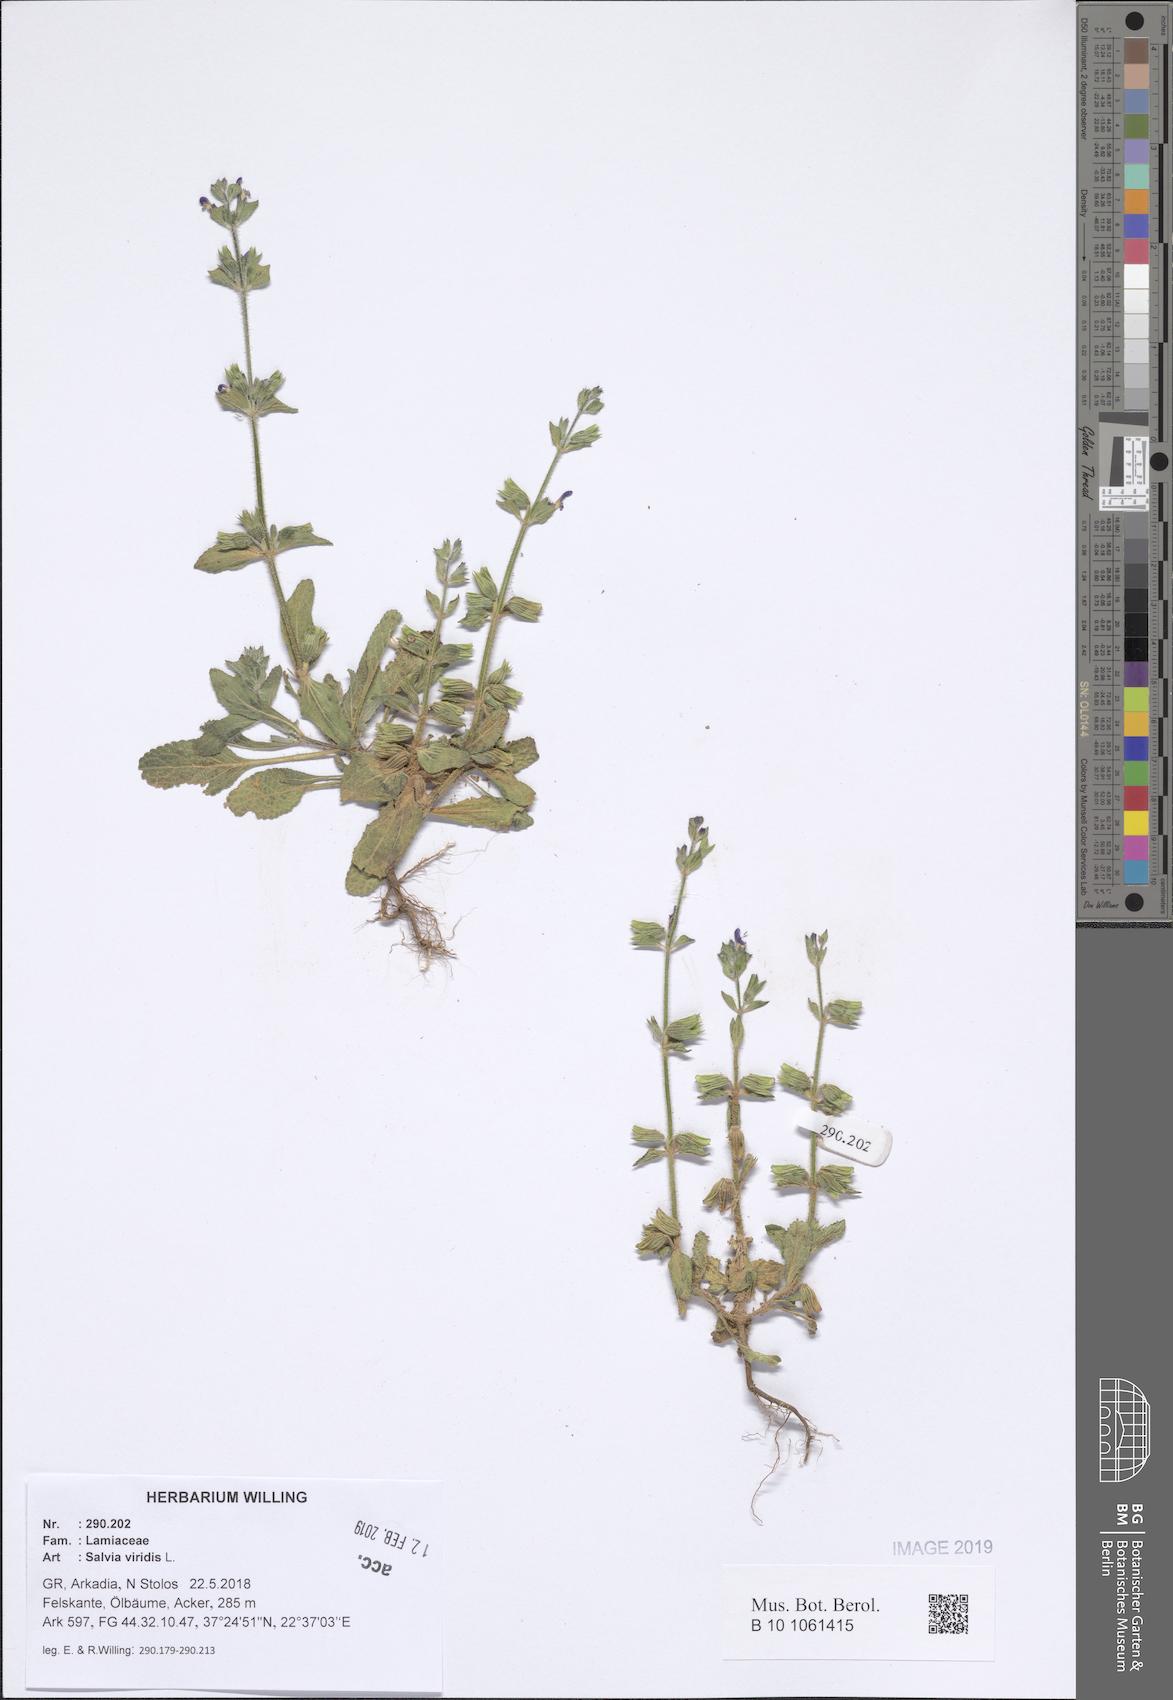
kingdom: Plantae
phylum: Tracheophyta
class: Magnoliopsida
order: Lamiales
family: Lamiaceae
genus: Salvia
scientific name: Salvia viridis
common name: Annual clary
